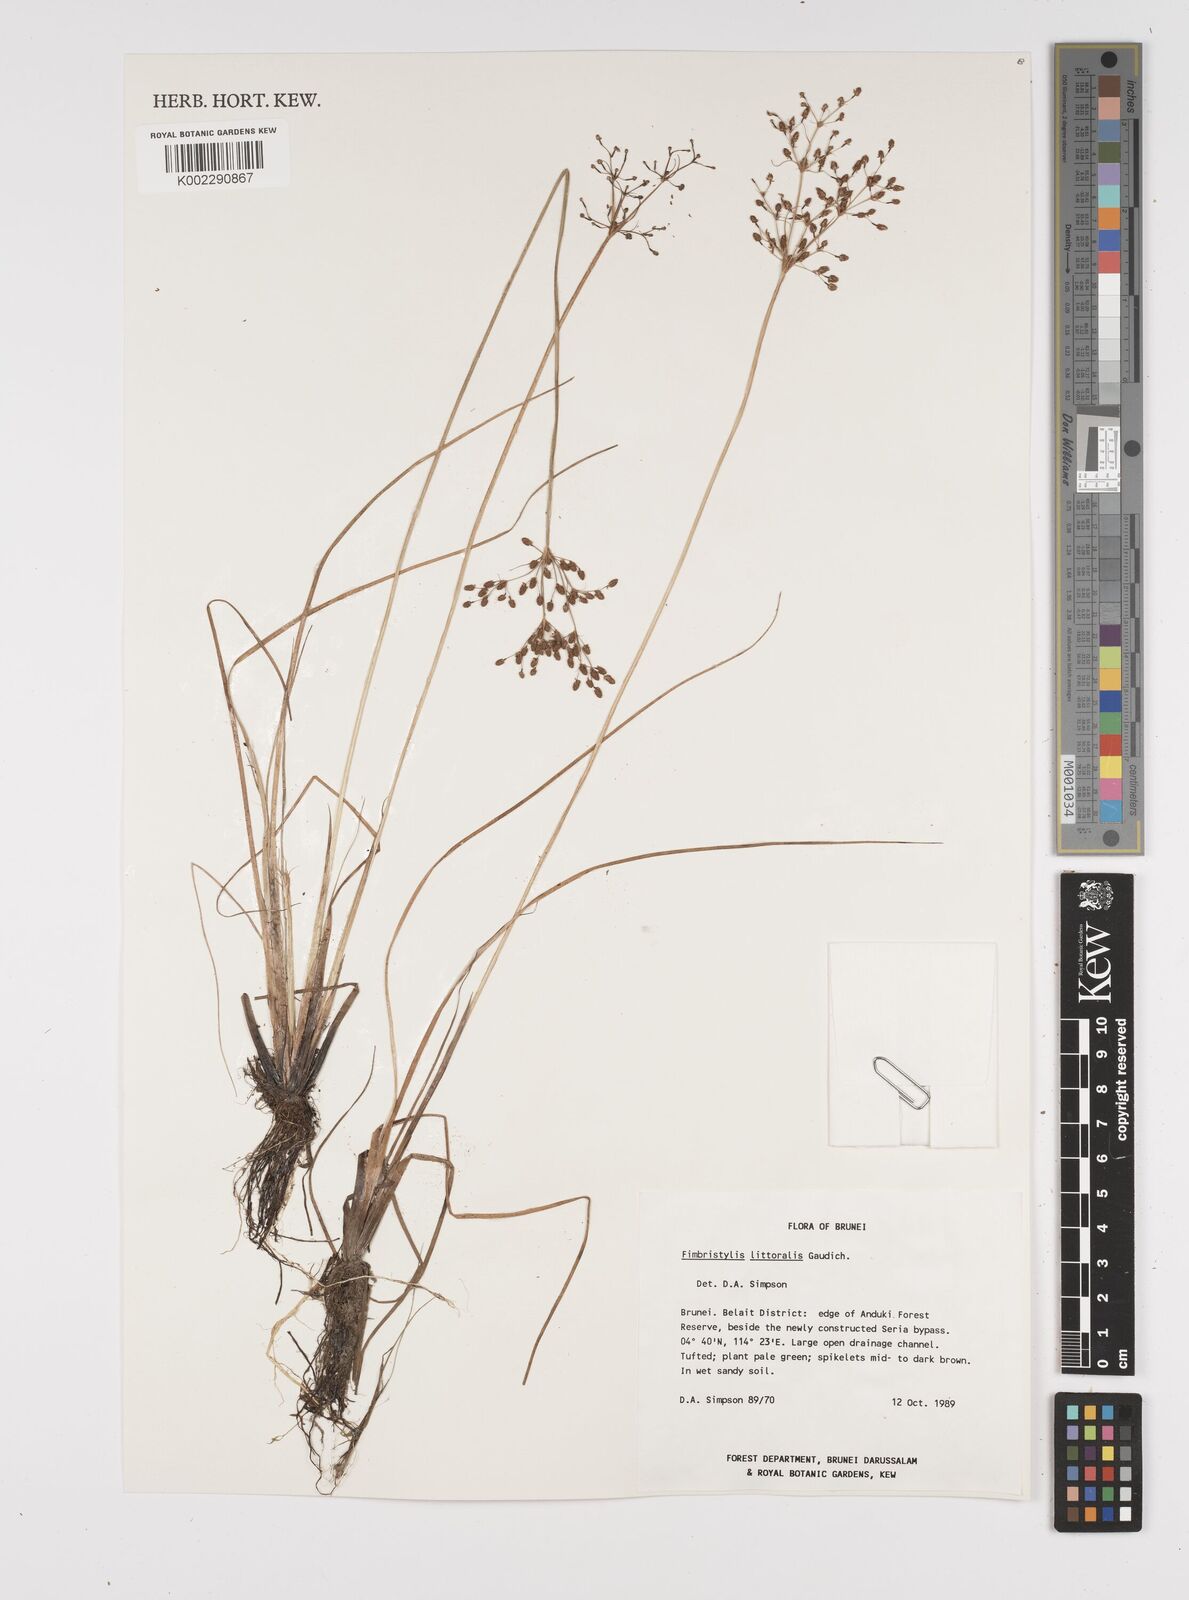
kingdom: Plantae
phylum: Tracheophyta
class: Liliopsida
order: Poales
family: Cyperaceae
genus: Fimbristylis
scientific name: Fimbristylis littoralis
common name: Fimbry
